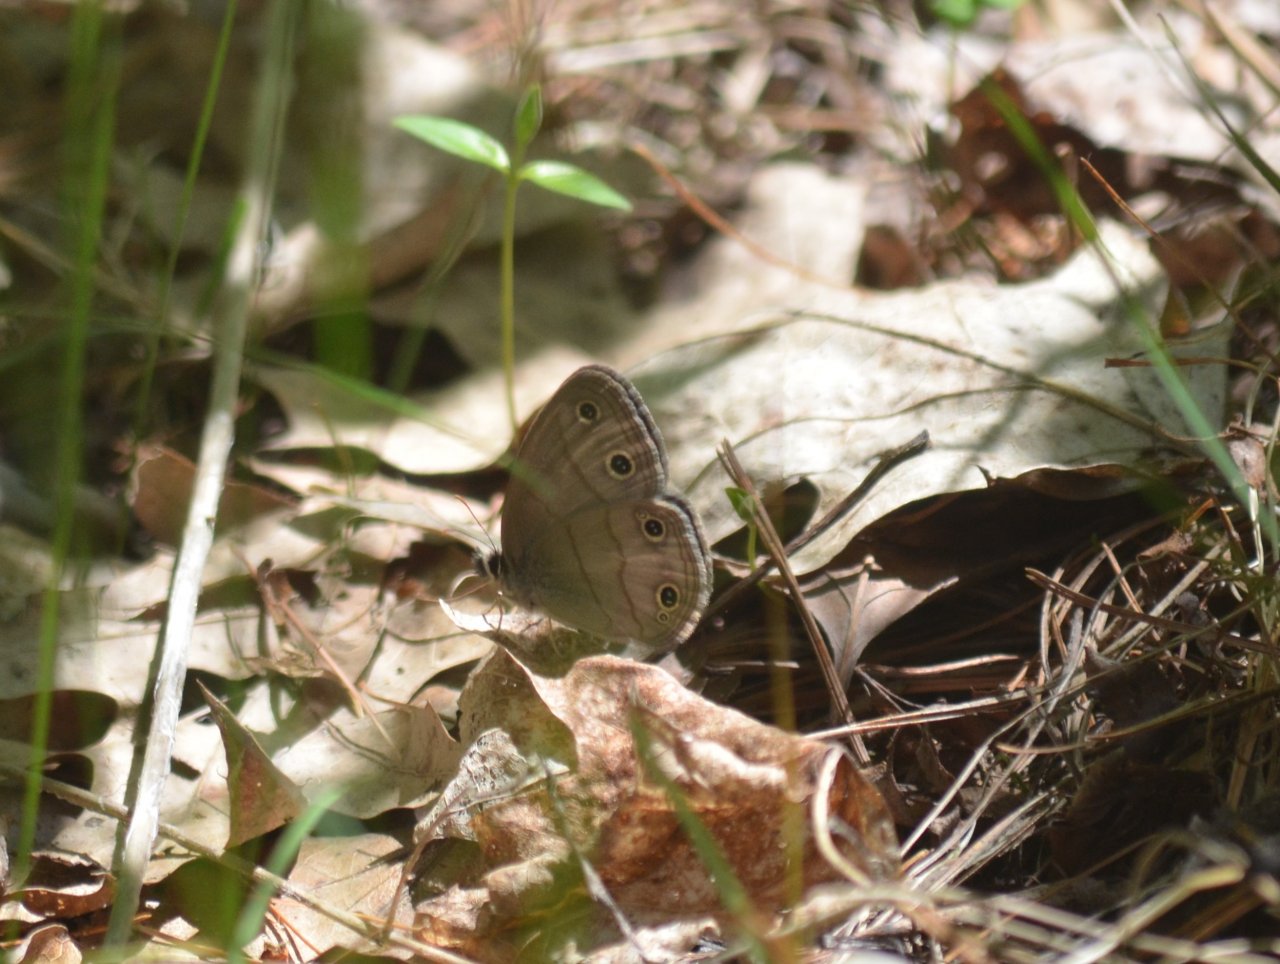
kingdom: Animalia
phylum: Arthropoda
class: Insecta
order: Lepidoptera
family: Nymphalidae
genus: Euptychia
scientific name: Euptychia cymela
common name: Little Wood Satyr
